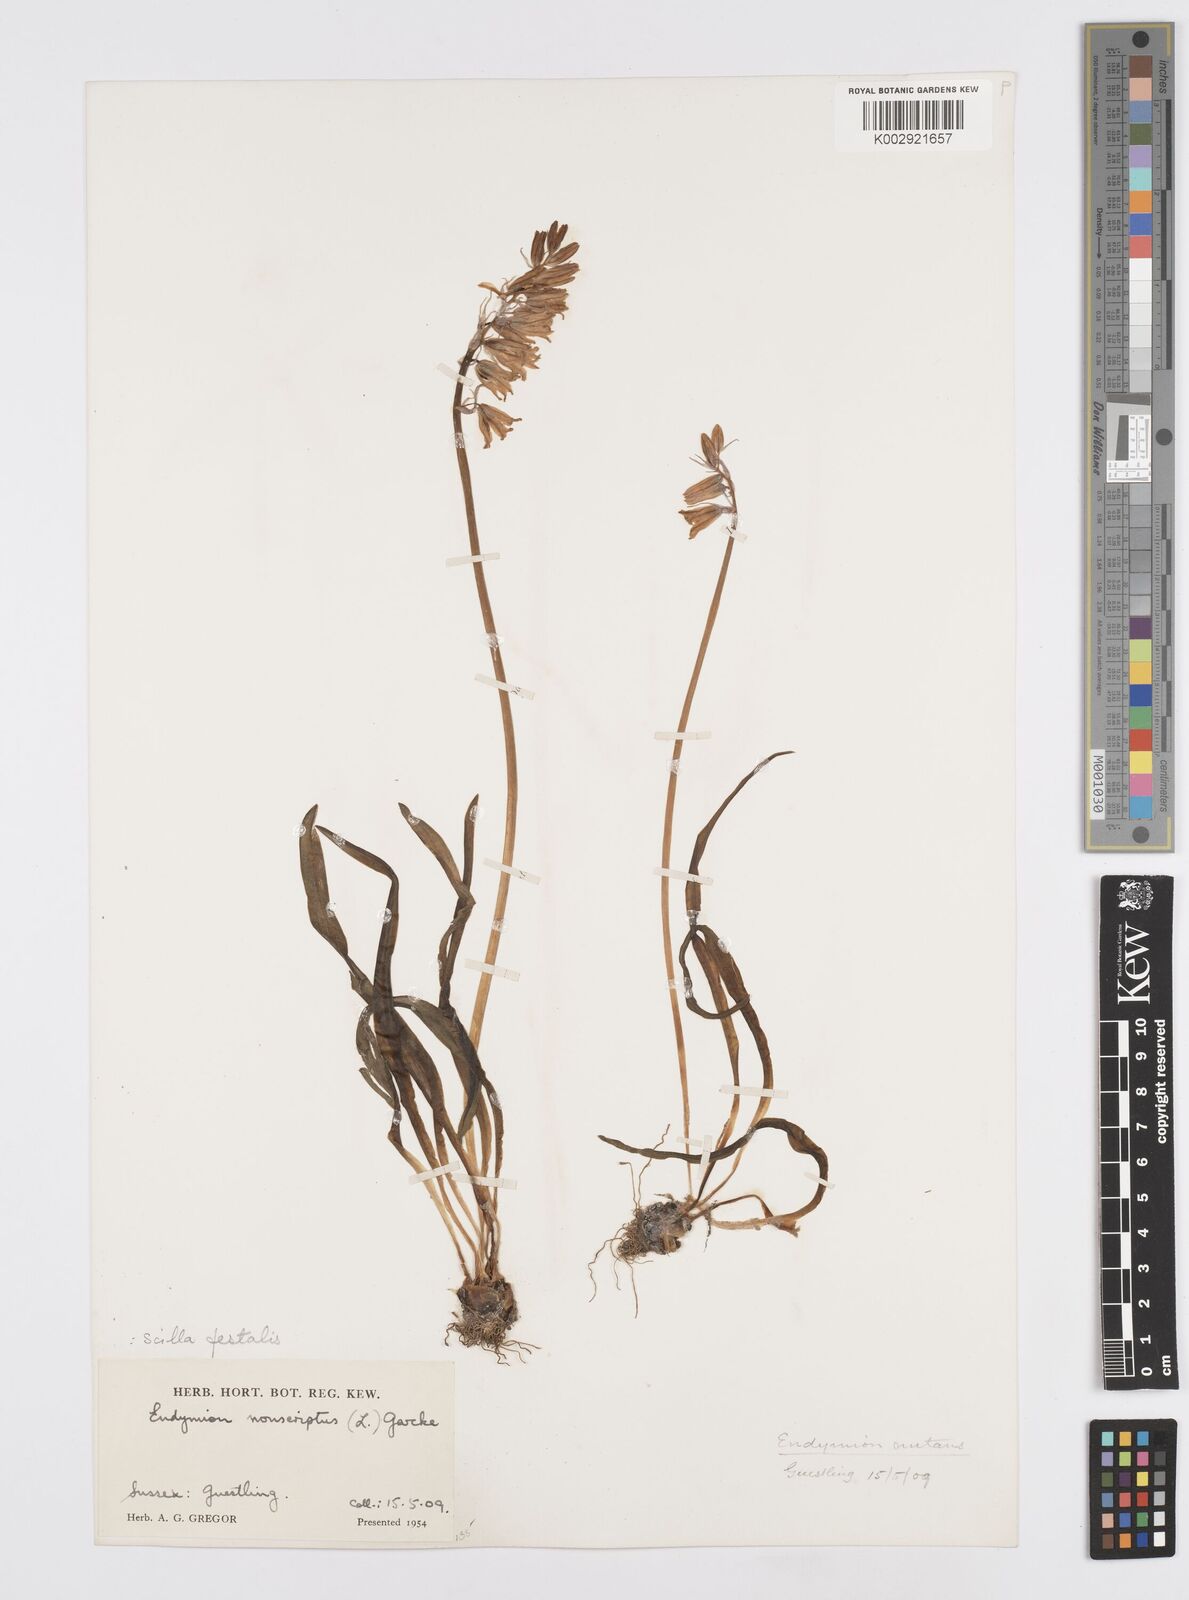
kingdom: Plantae
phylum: Tracheophyta
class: Liliopsida
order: Asparagales
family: Asparagaceae
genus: Hyacinthoides
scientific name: Hyacinthoides non-scripta
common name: Bluebell
